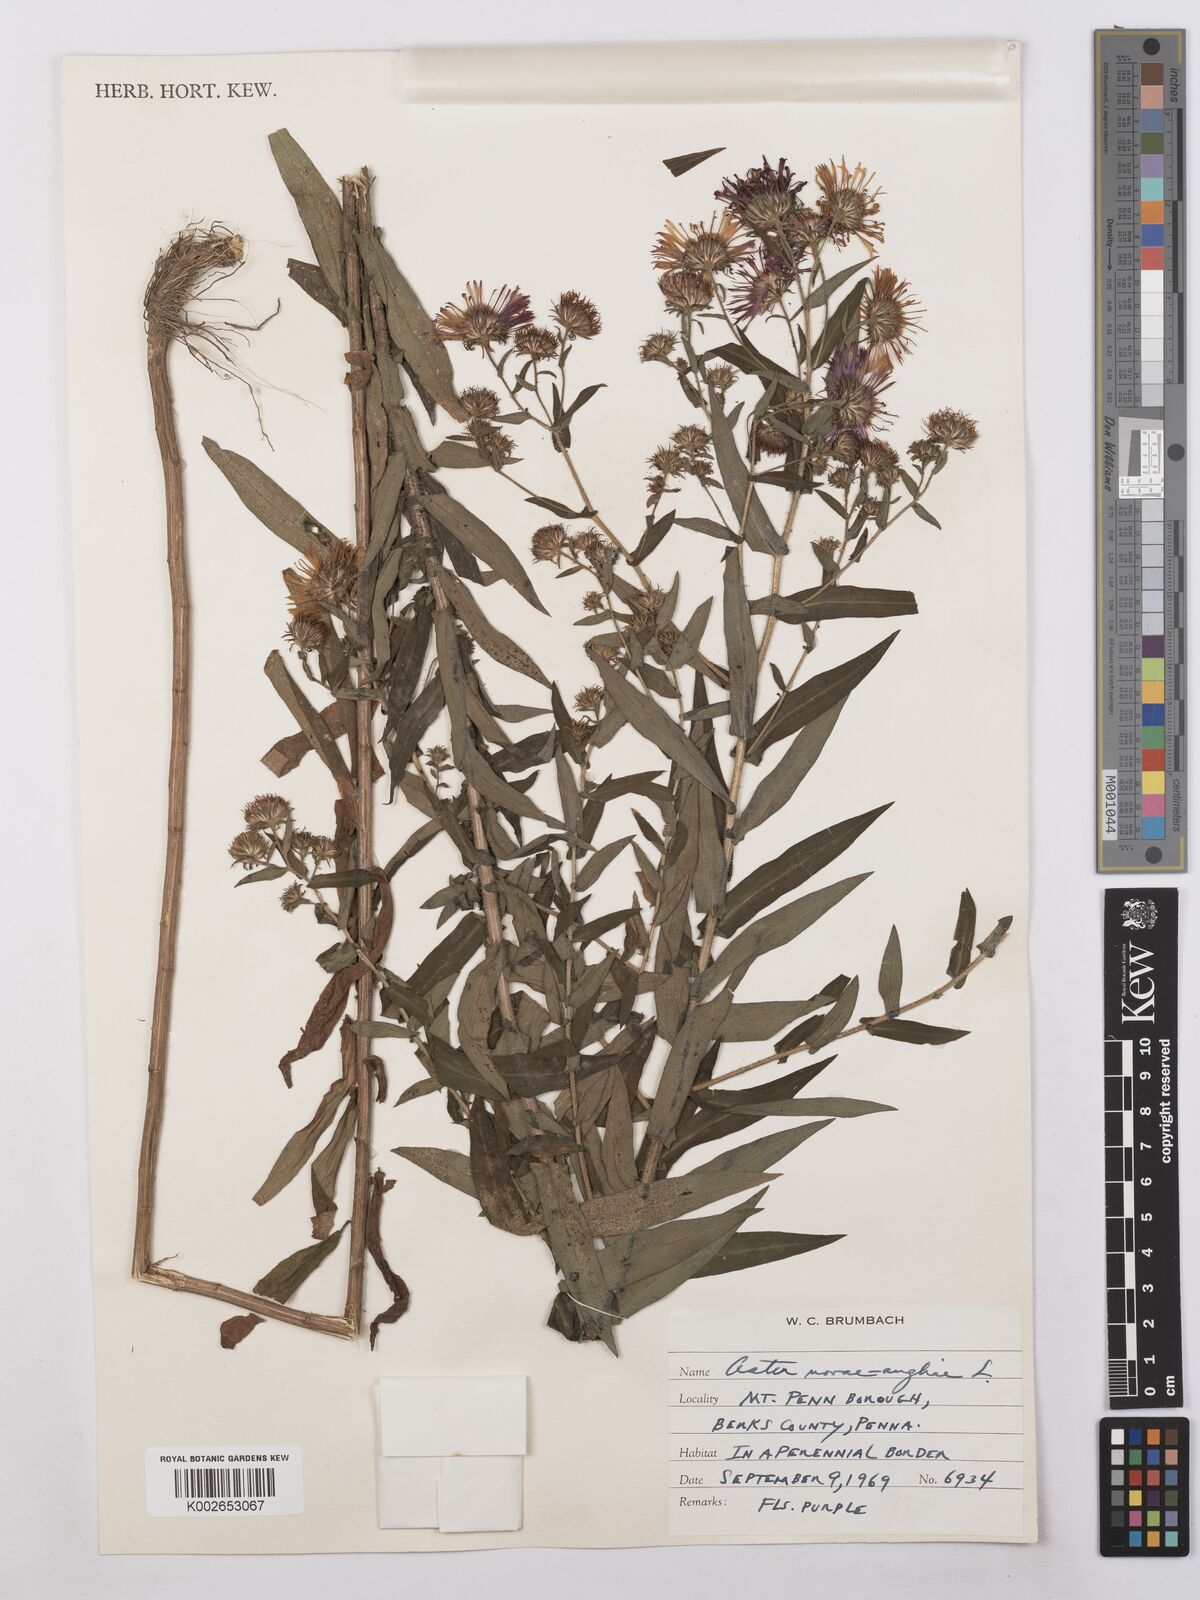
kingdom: Plantae
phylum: Tracheophyta
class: Magnoliopsida
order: Asterales
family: Asteraceae
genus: Symphyotrichum
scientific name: Symphyotrichum novae-angliae
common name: Michaelmas daisy
